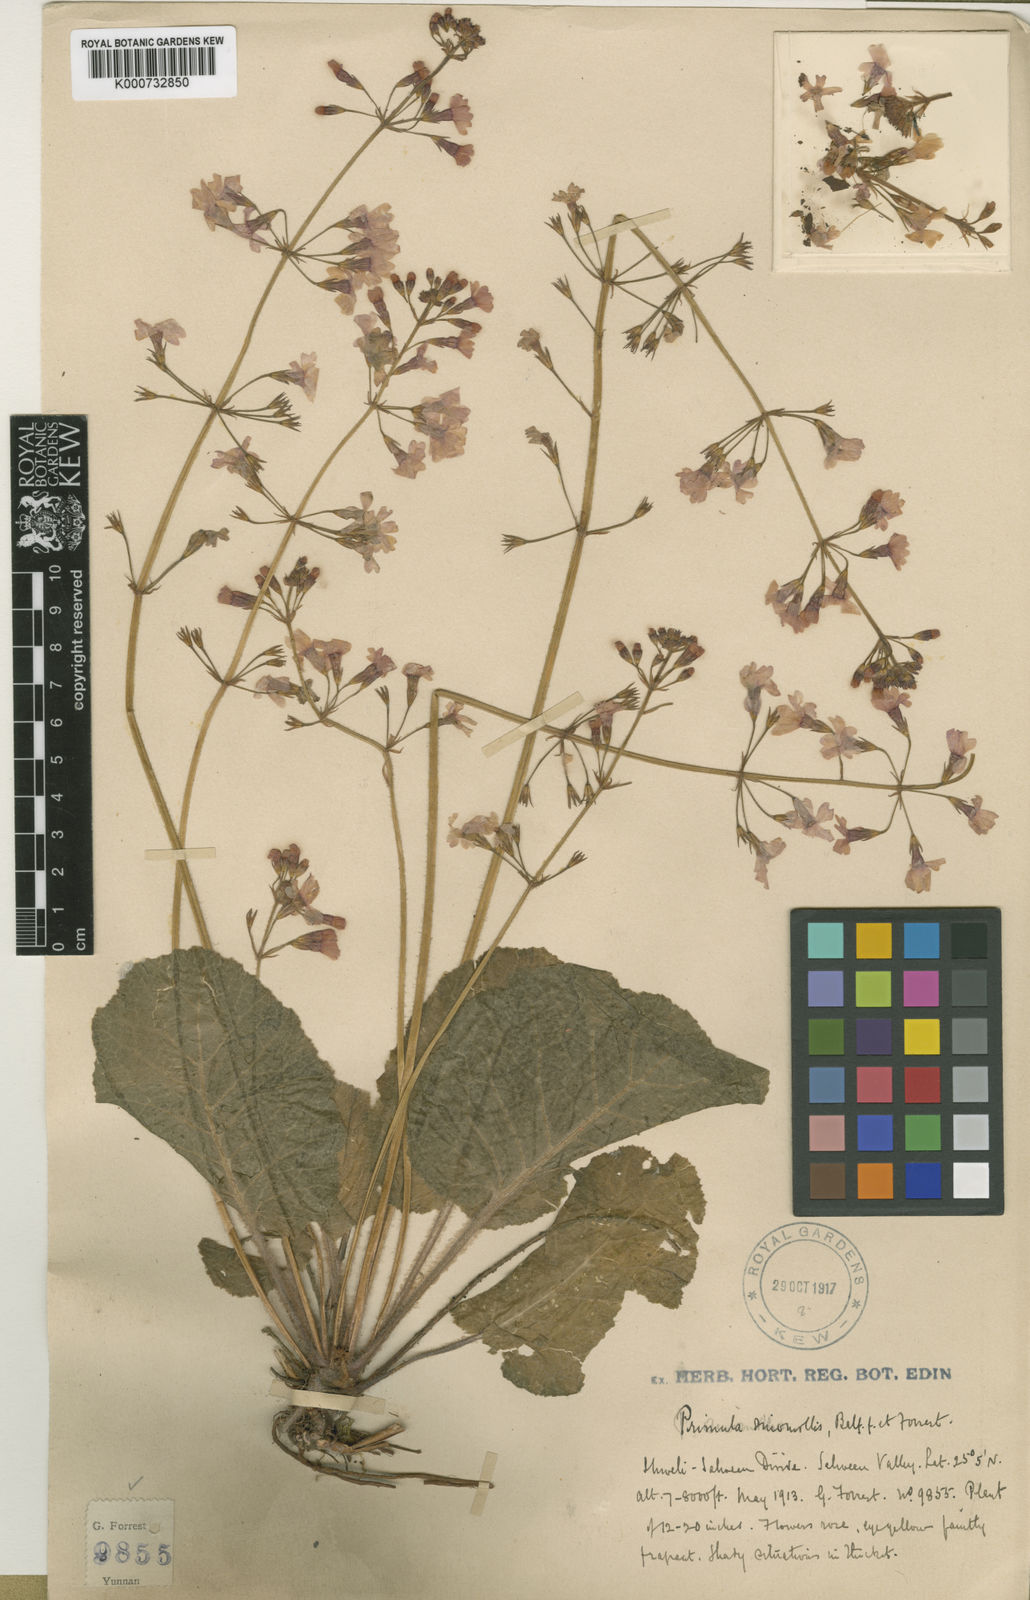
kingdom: Plantae
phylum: Tracheophyta
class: Magnoliopsida
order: Ericales
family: Primulaceae
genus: Primula
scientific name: Primula cinerascens
